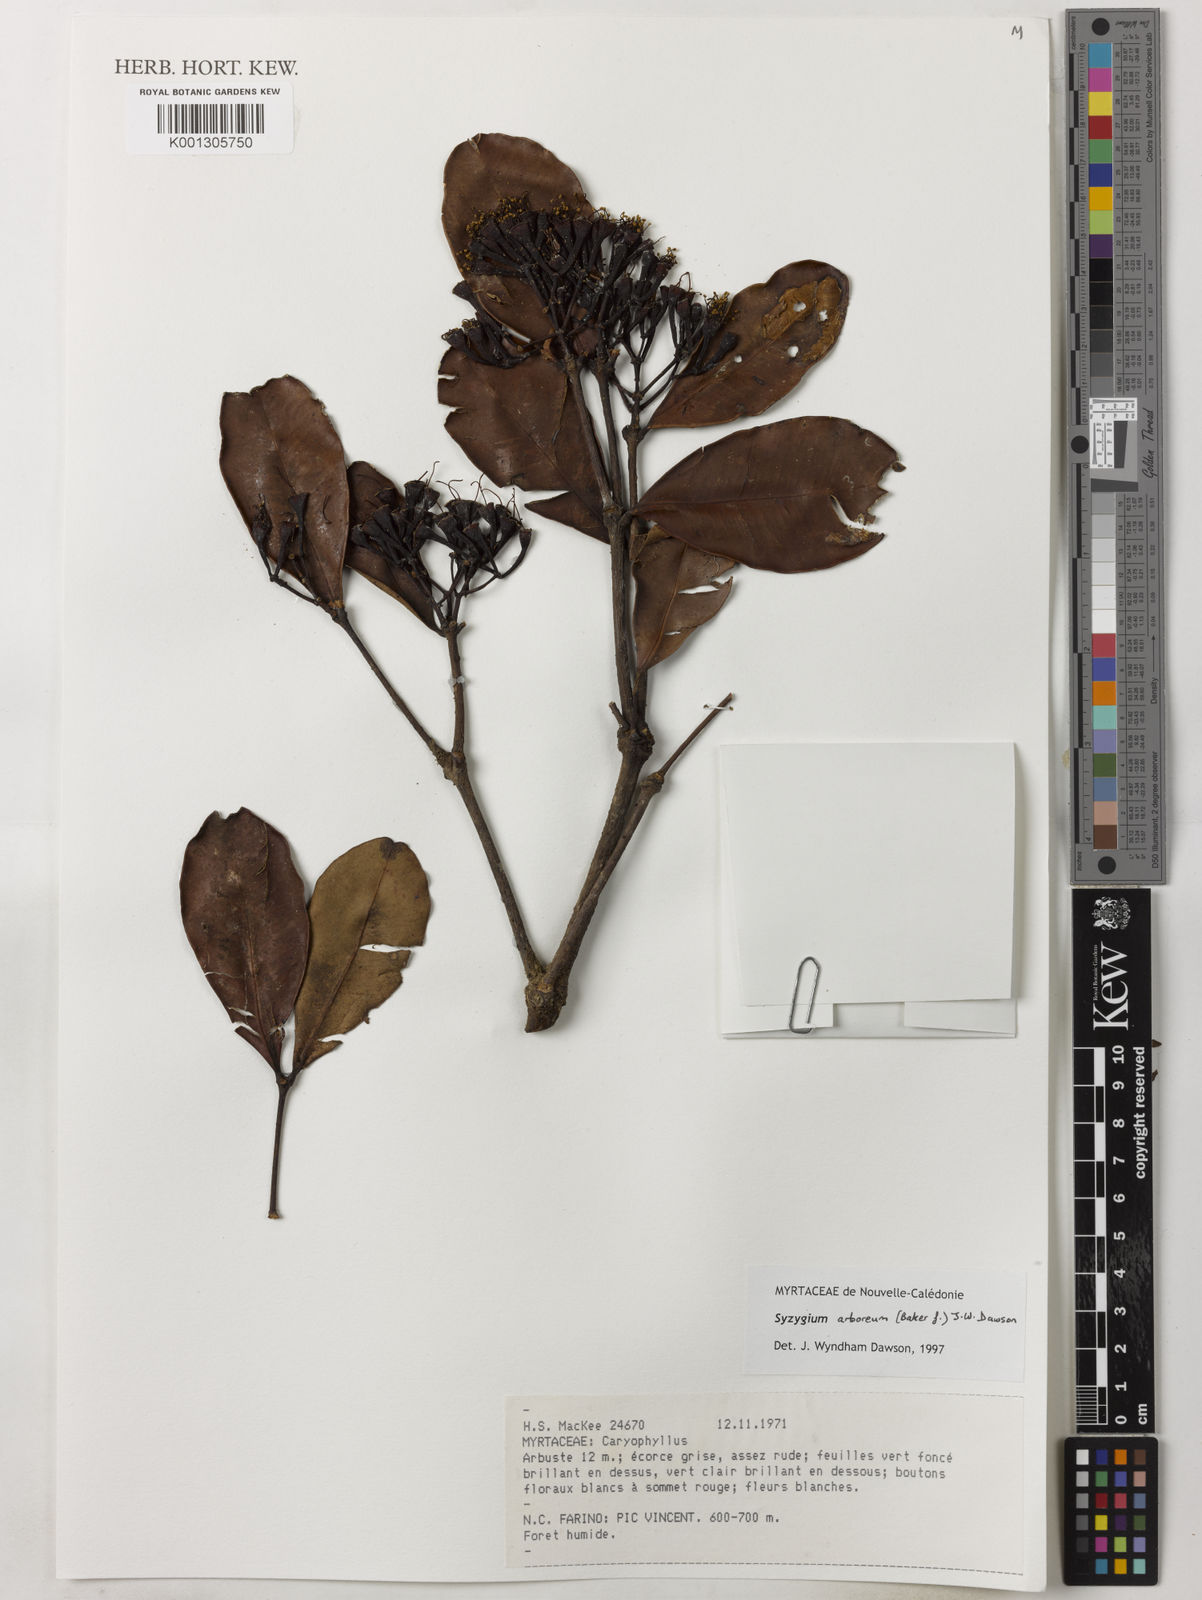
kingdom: Plantae
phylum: Tracheophyta
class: Magnoliopsida
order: Myrtales
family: Myrtaceae
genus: Syzygium
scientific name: Syzygium arboreum
